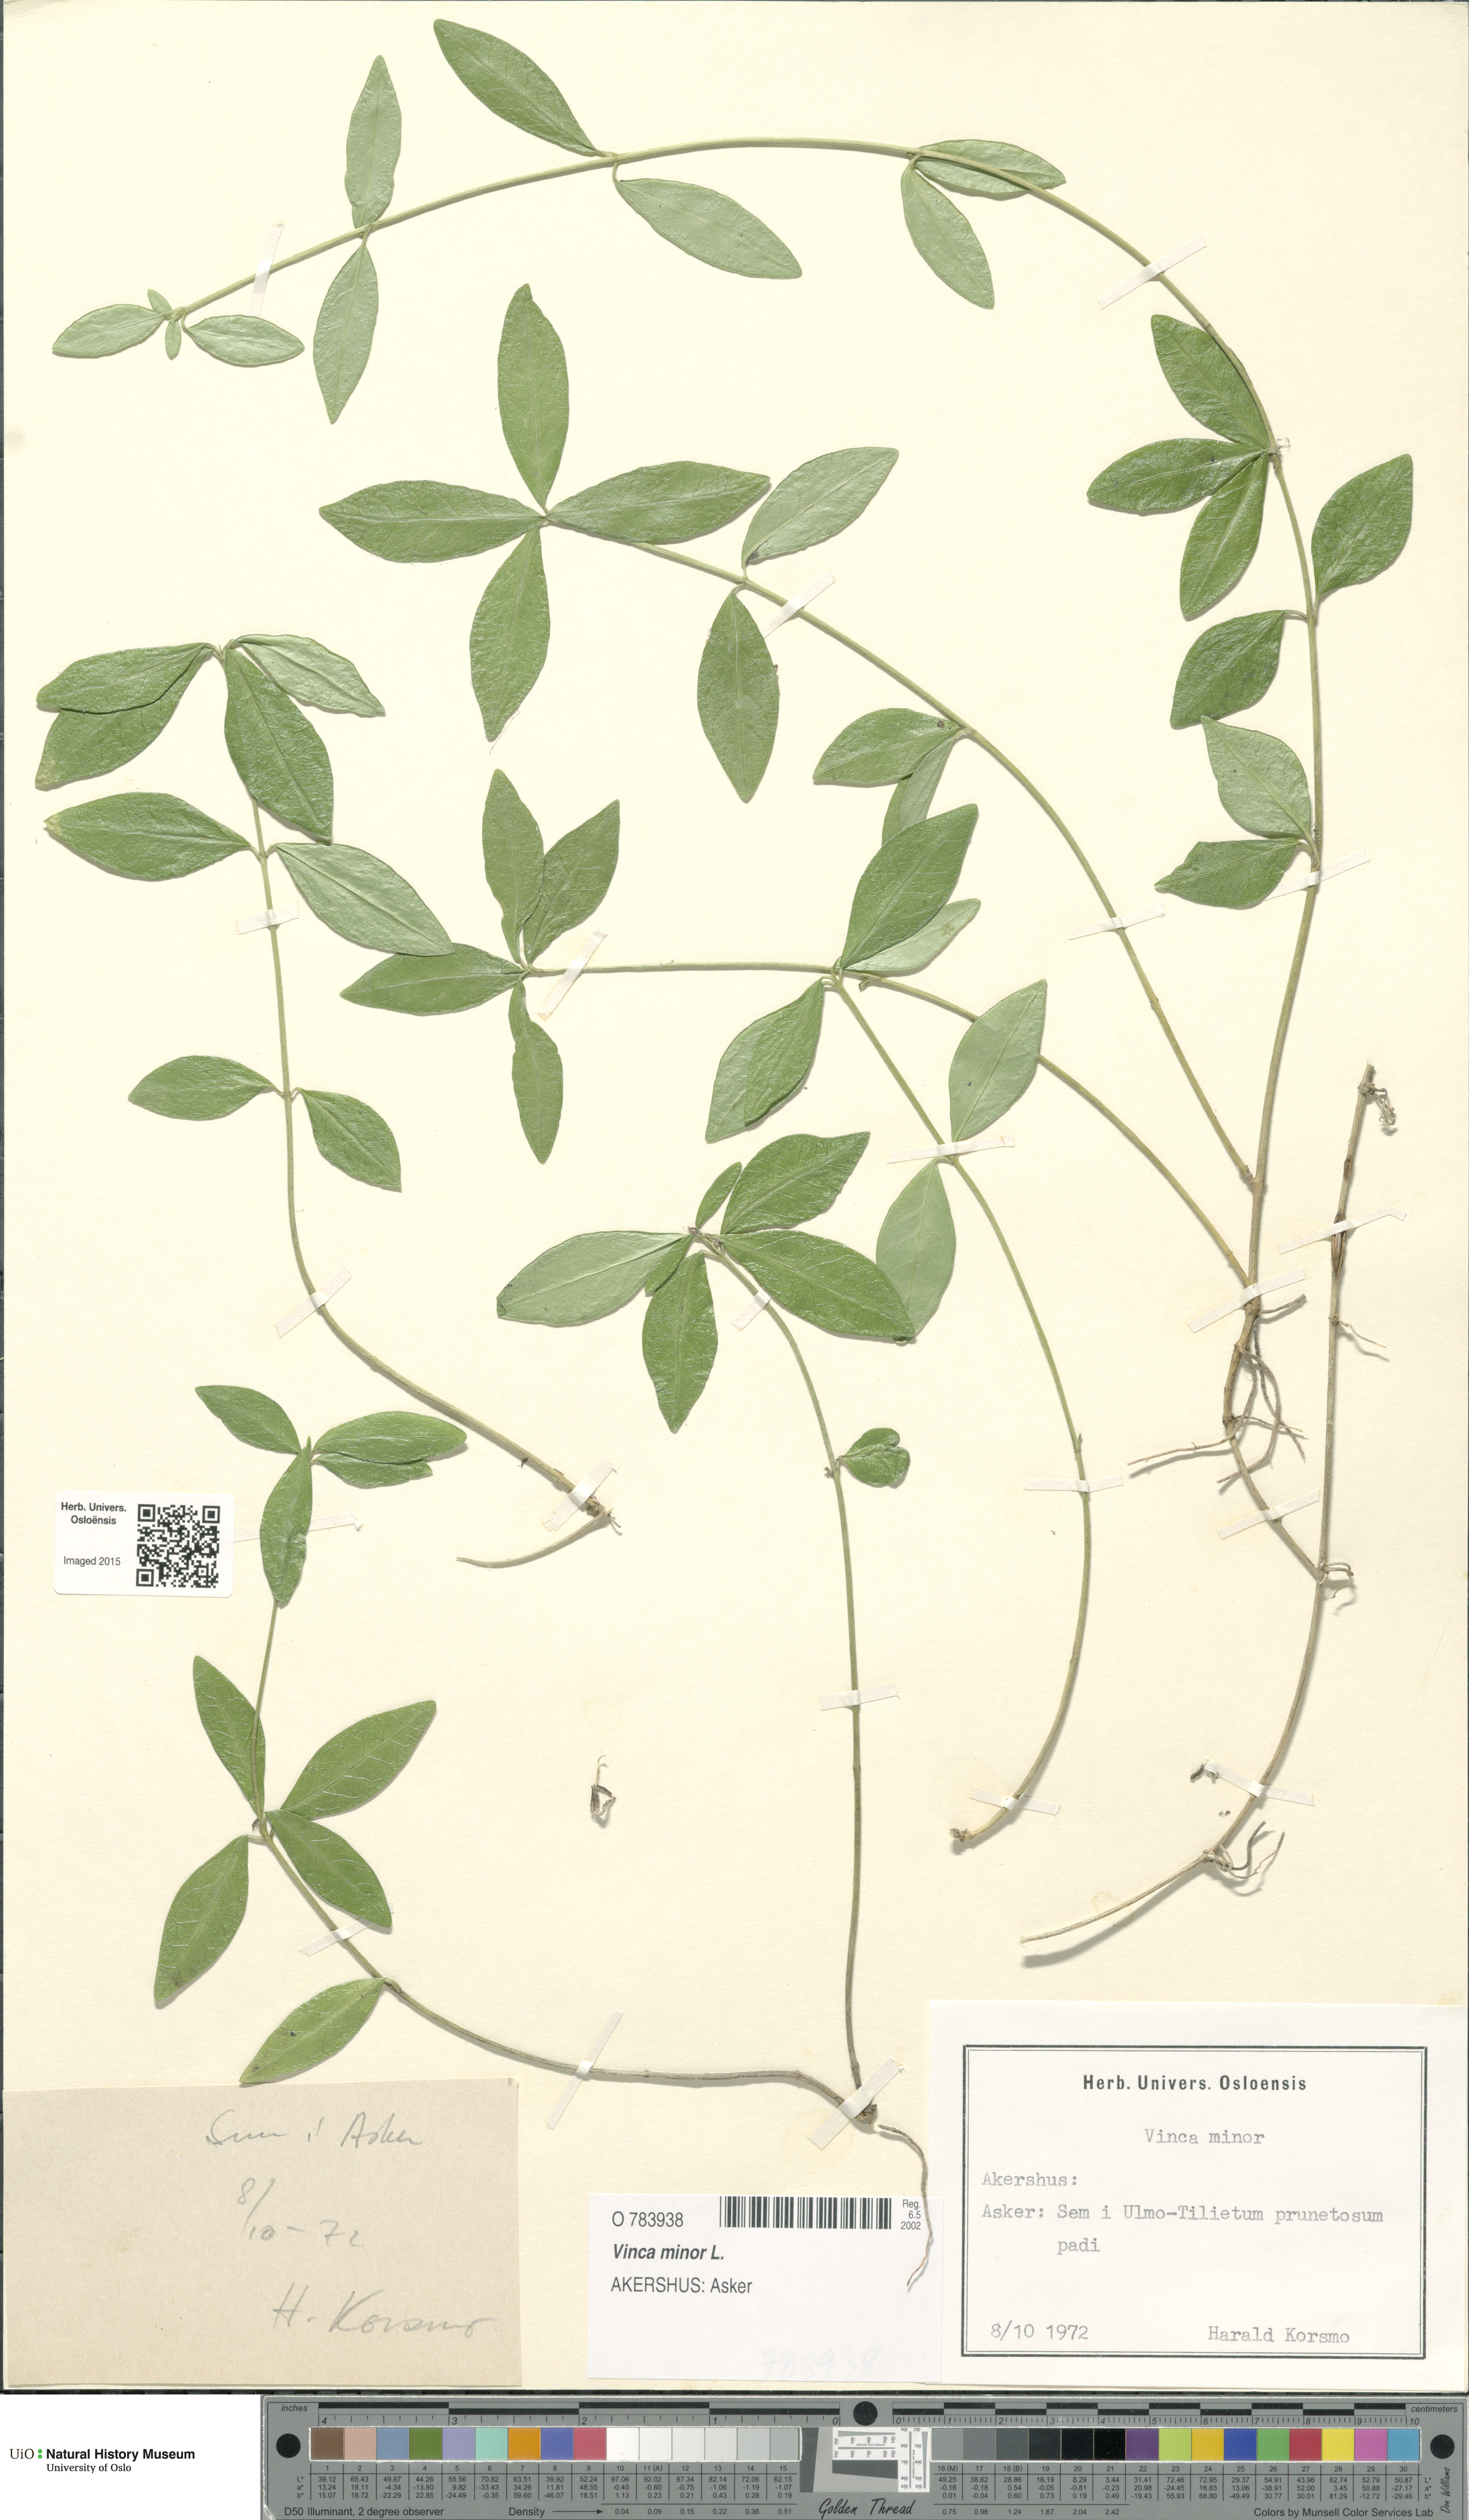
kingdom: Plantae
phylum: Tracheophyta
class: Magnoliopsida
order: Gentianales
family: Apocynaceae
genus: Vinca
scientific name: Vinca minor
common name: Lesser periwinkle
